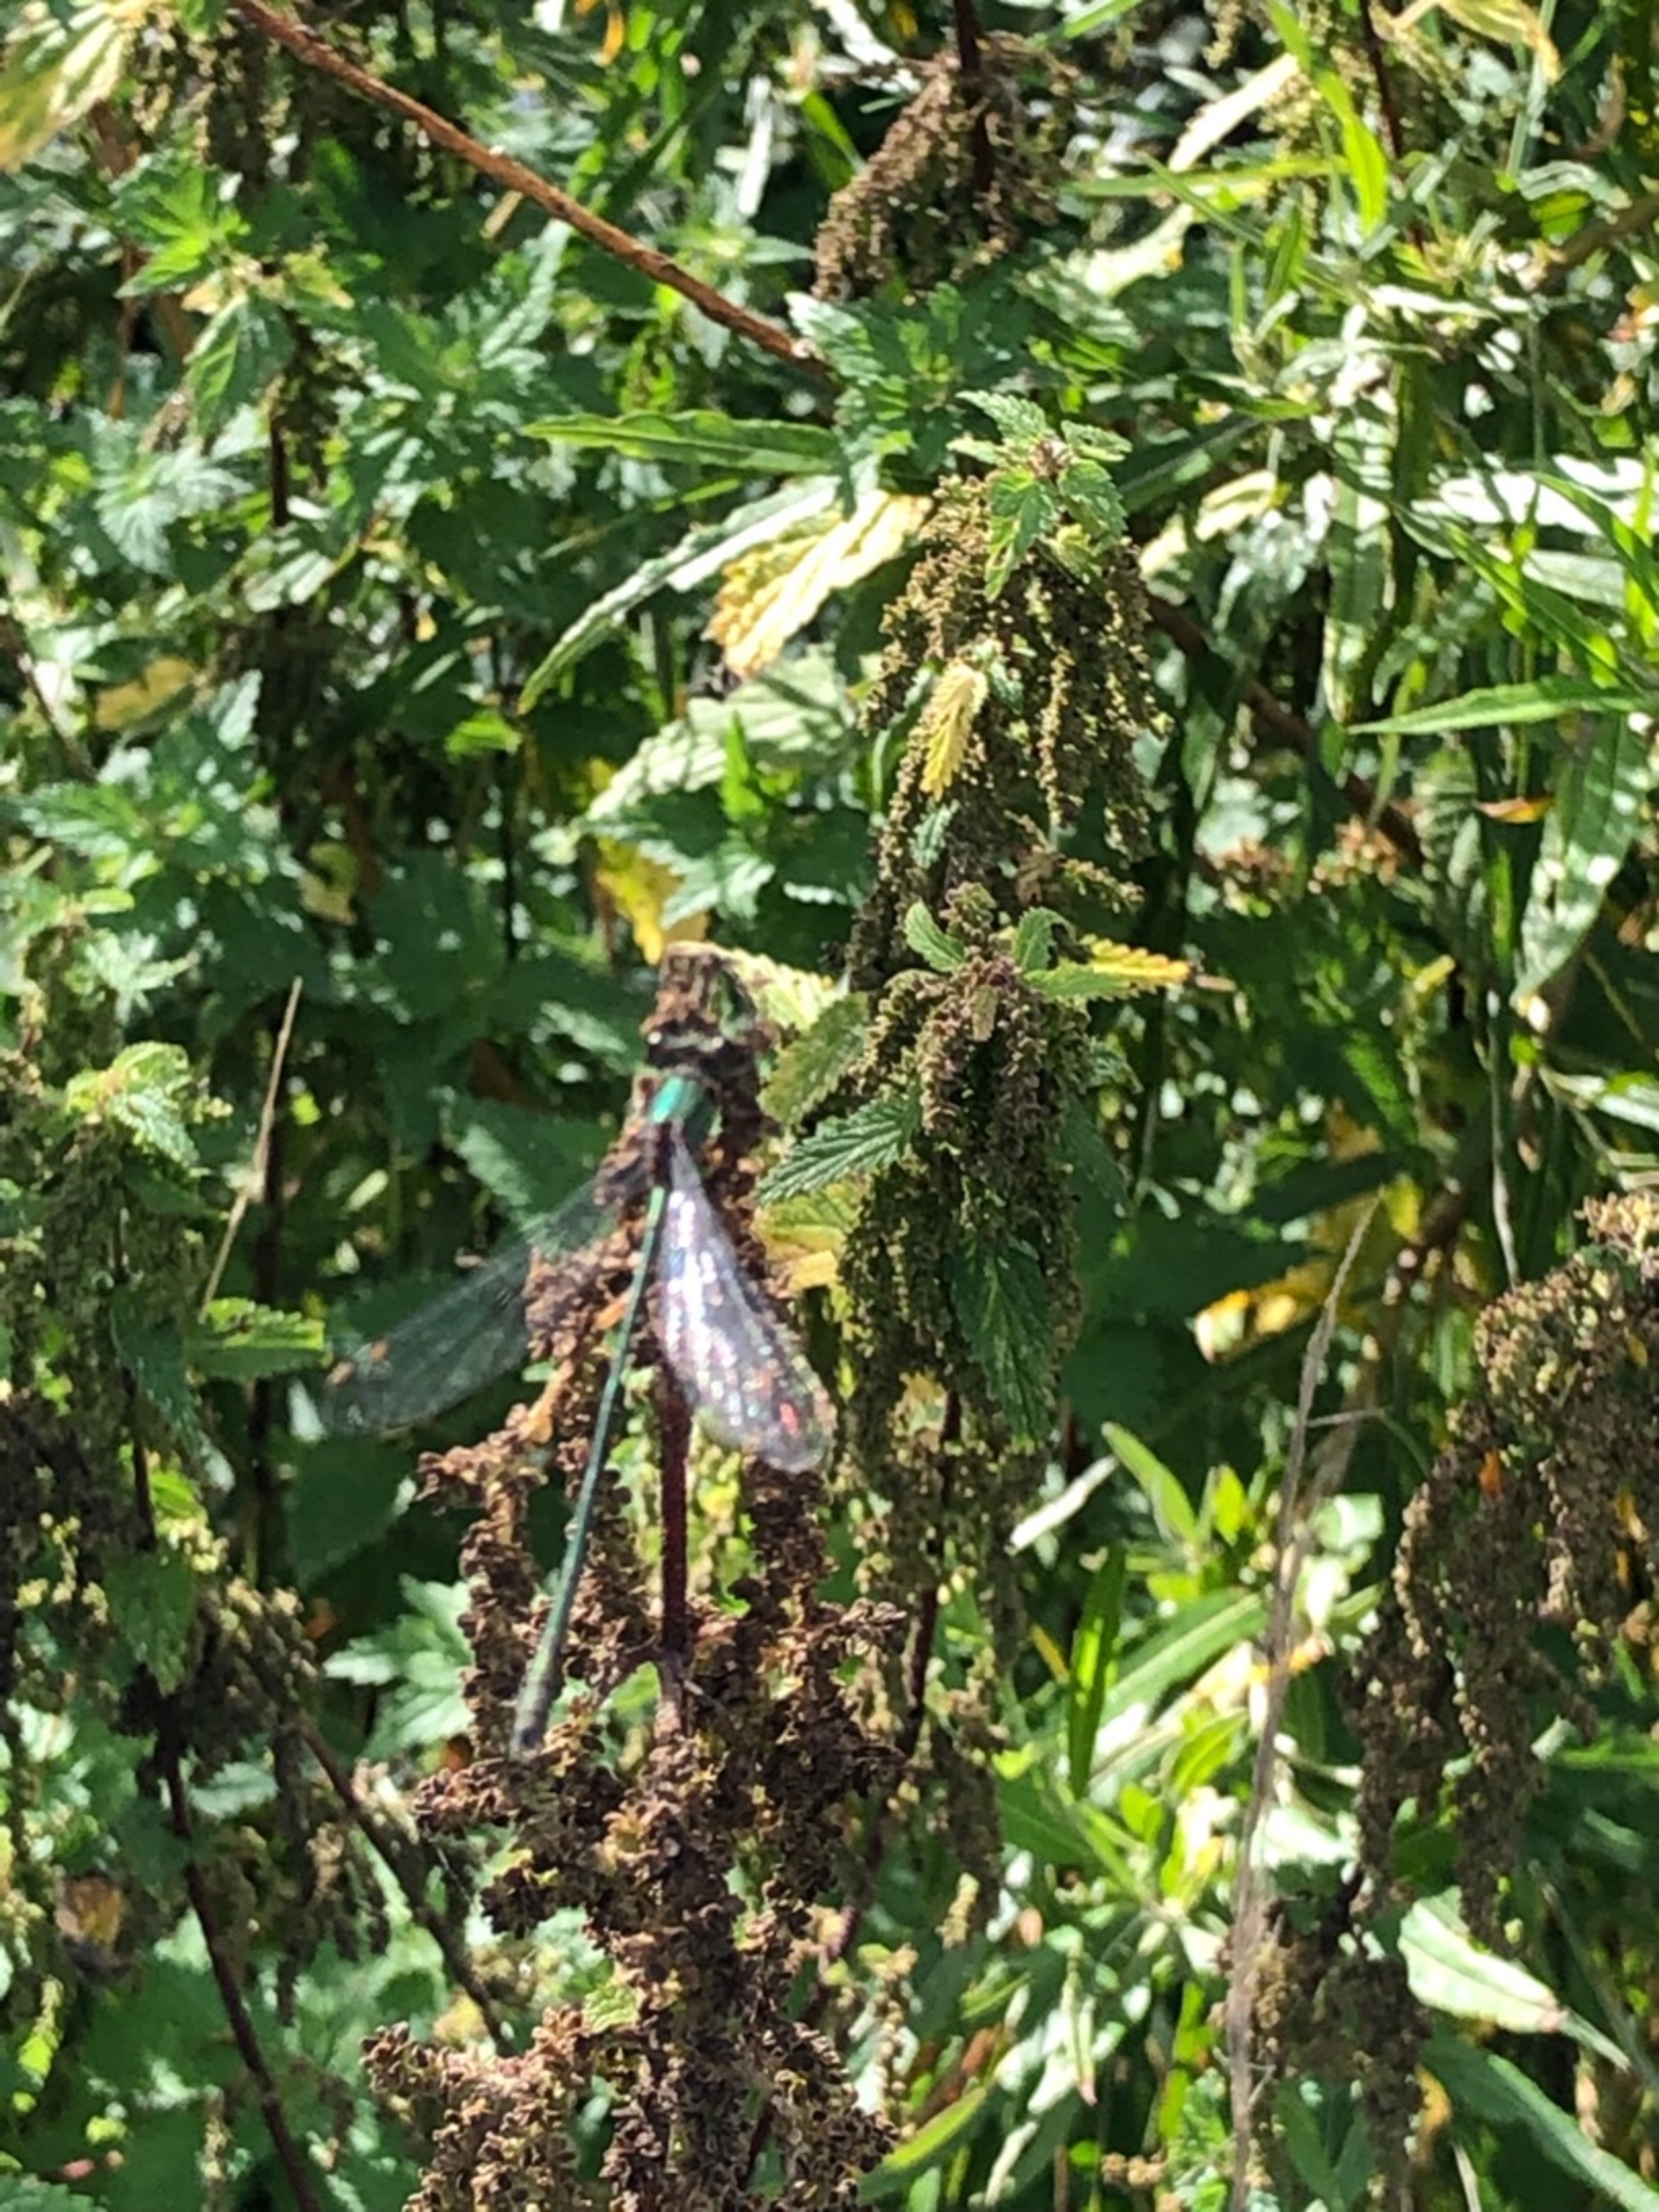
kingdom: Animalia
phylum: Arthropoda
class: Insecta
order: Odonata
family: Lestidae
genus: Chalcolestes
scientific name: Chalcolestes viridis
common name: Grøn kobbervandnymfe
